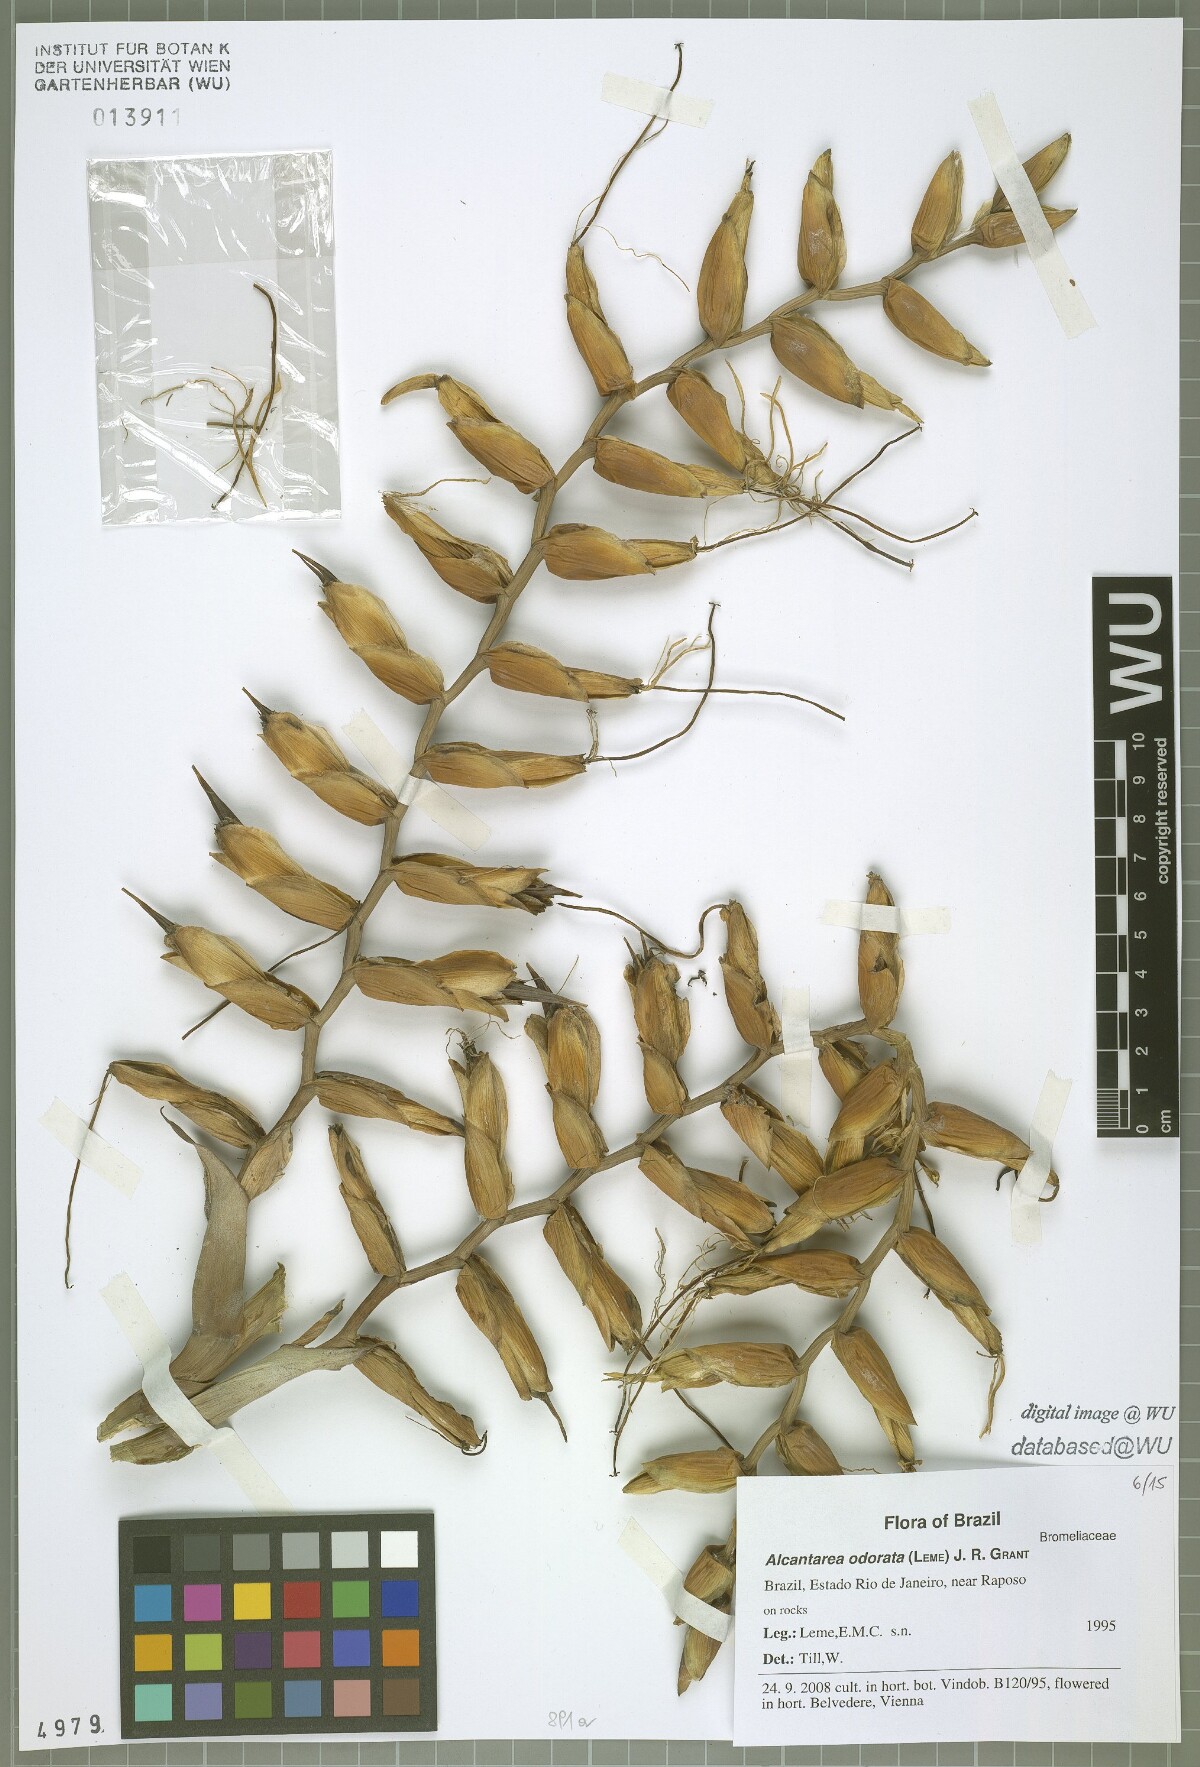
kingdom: Plantae
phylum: Tracheophyta
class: Liliopsida
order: Poales
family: Bromeliaceae
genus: Alcantarea
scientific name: Alcantarea odorata
